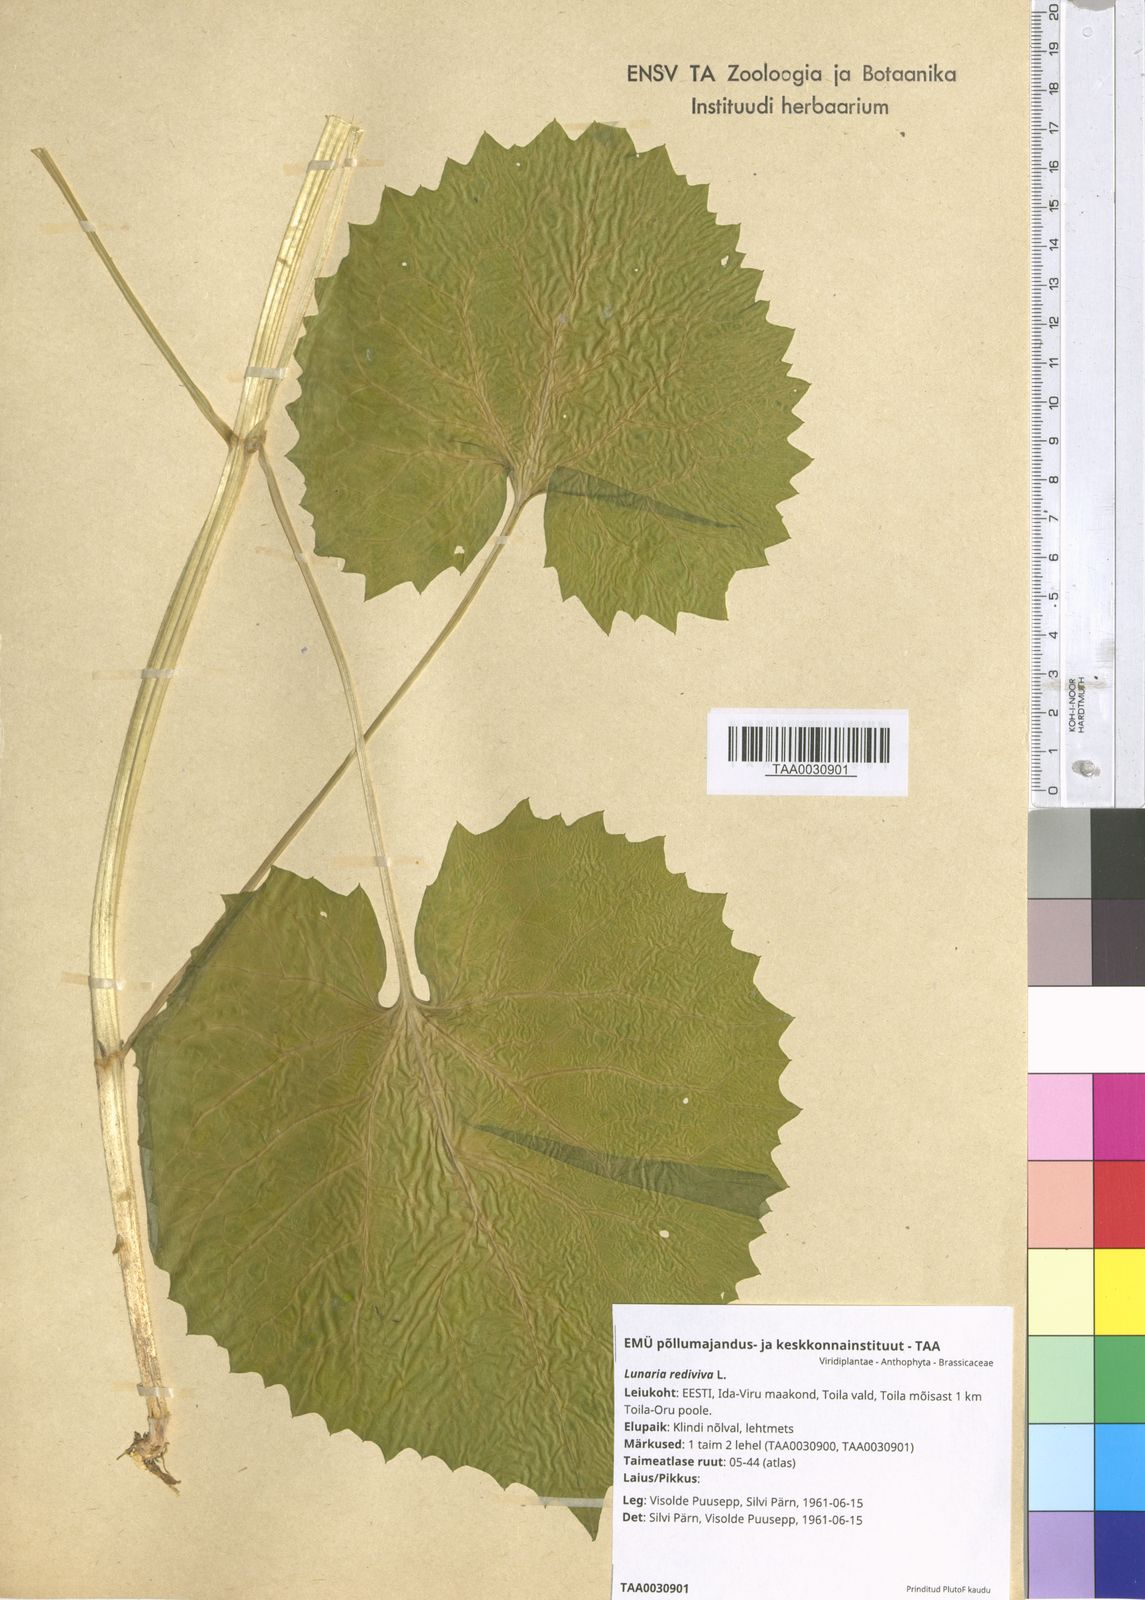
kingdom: Plantae
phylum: Tracheophyta
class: Magnoliopsida
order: Brassicales
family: Brassicaceae
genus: Lunaria
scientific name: Lunaria rediviva
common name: Perennial honesty
